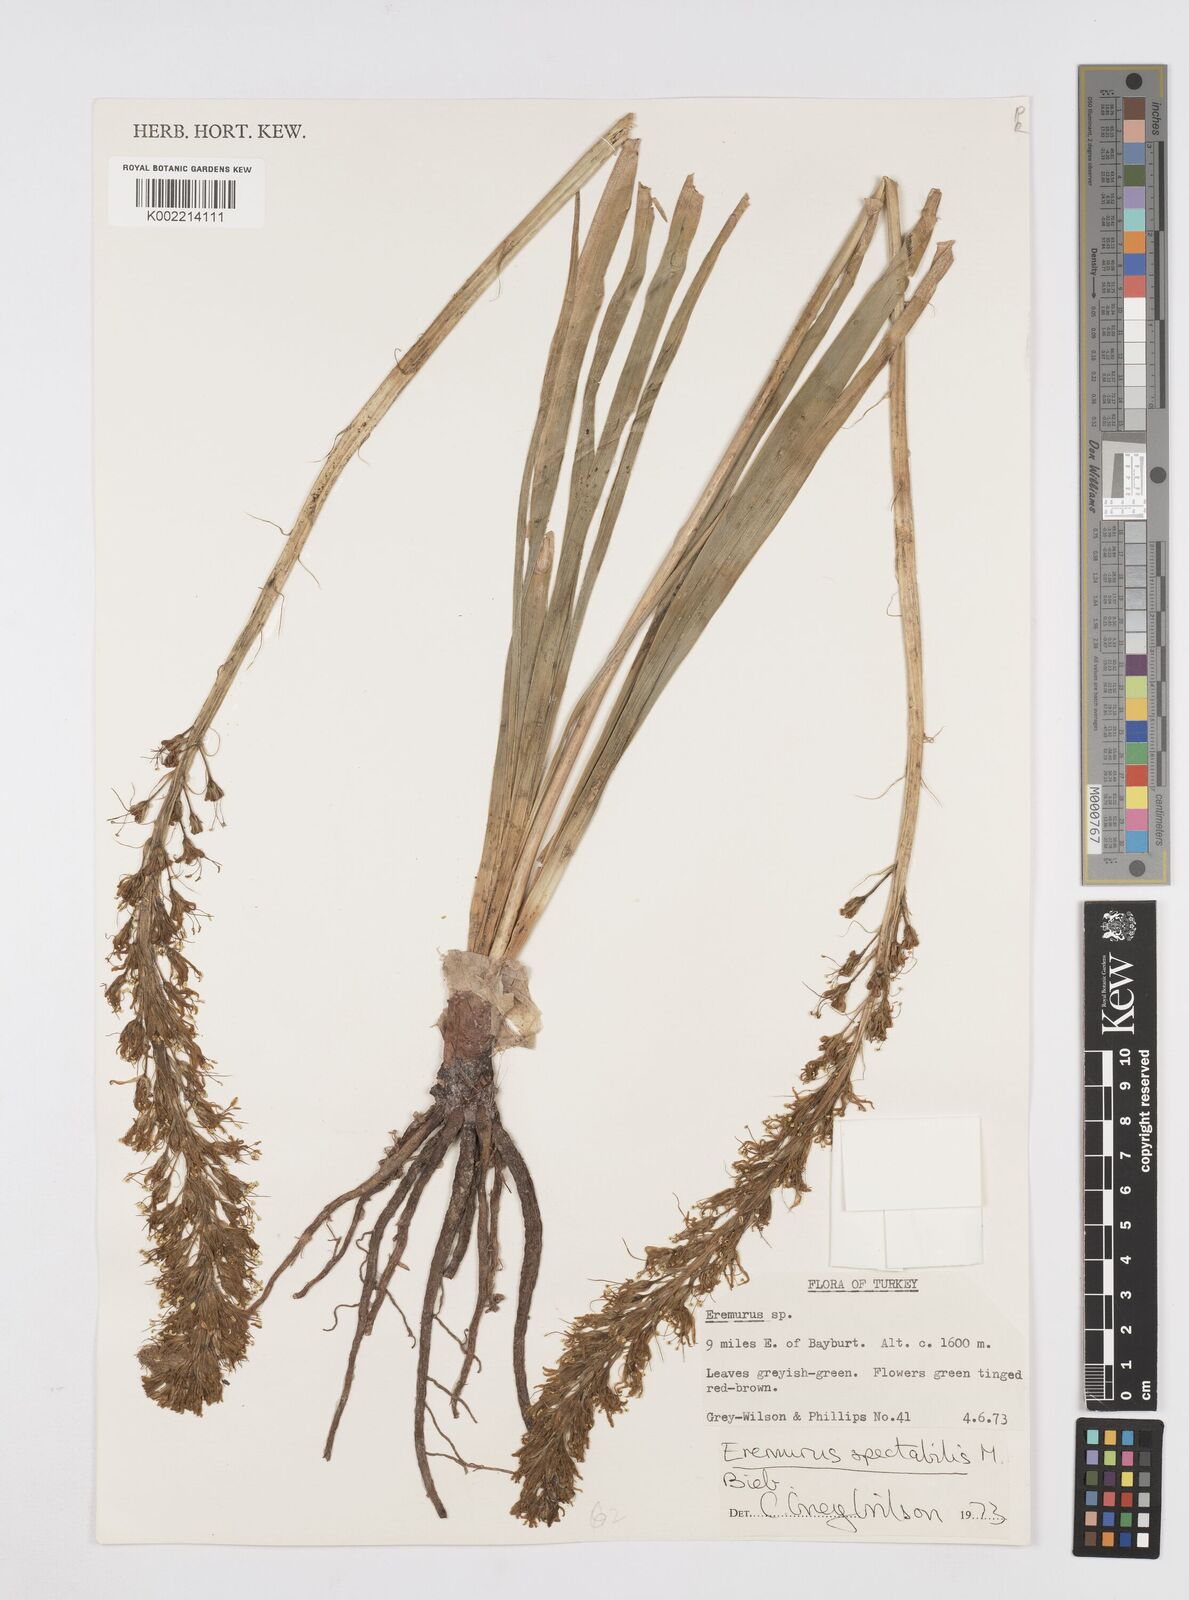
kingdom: Plantae
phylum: Tracheophyta
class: Liliopsida
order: Asparagales
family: Asphodelaceae
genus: Eremurus
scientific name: Eremurus spectabilis
